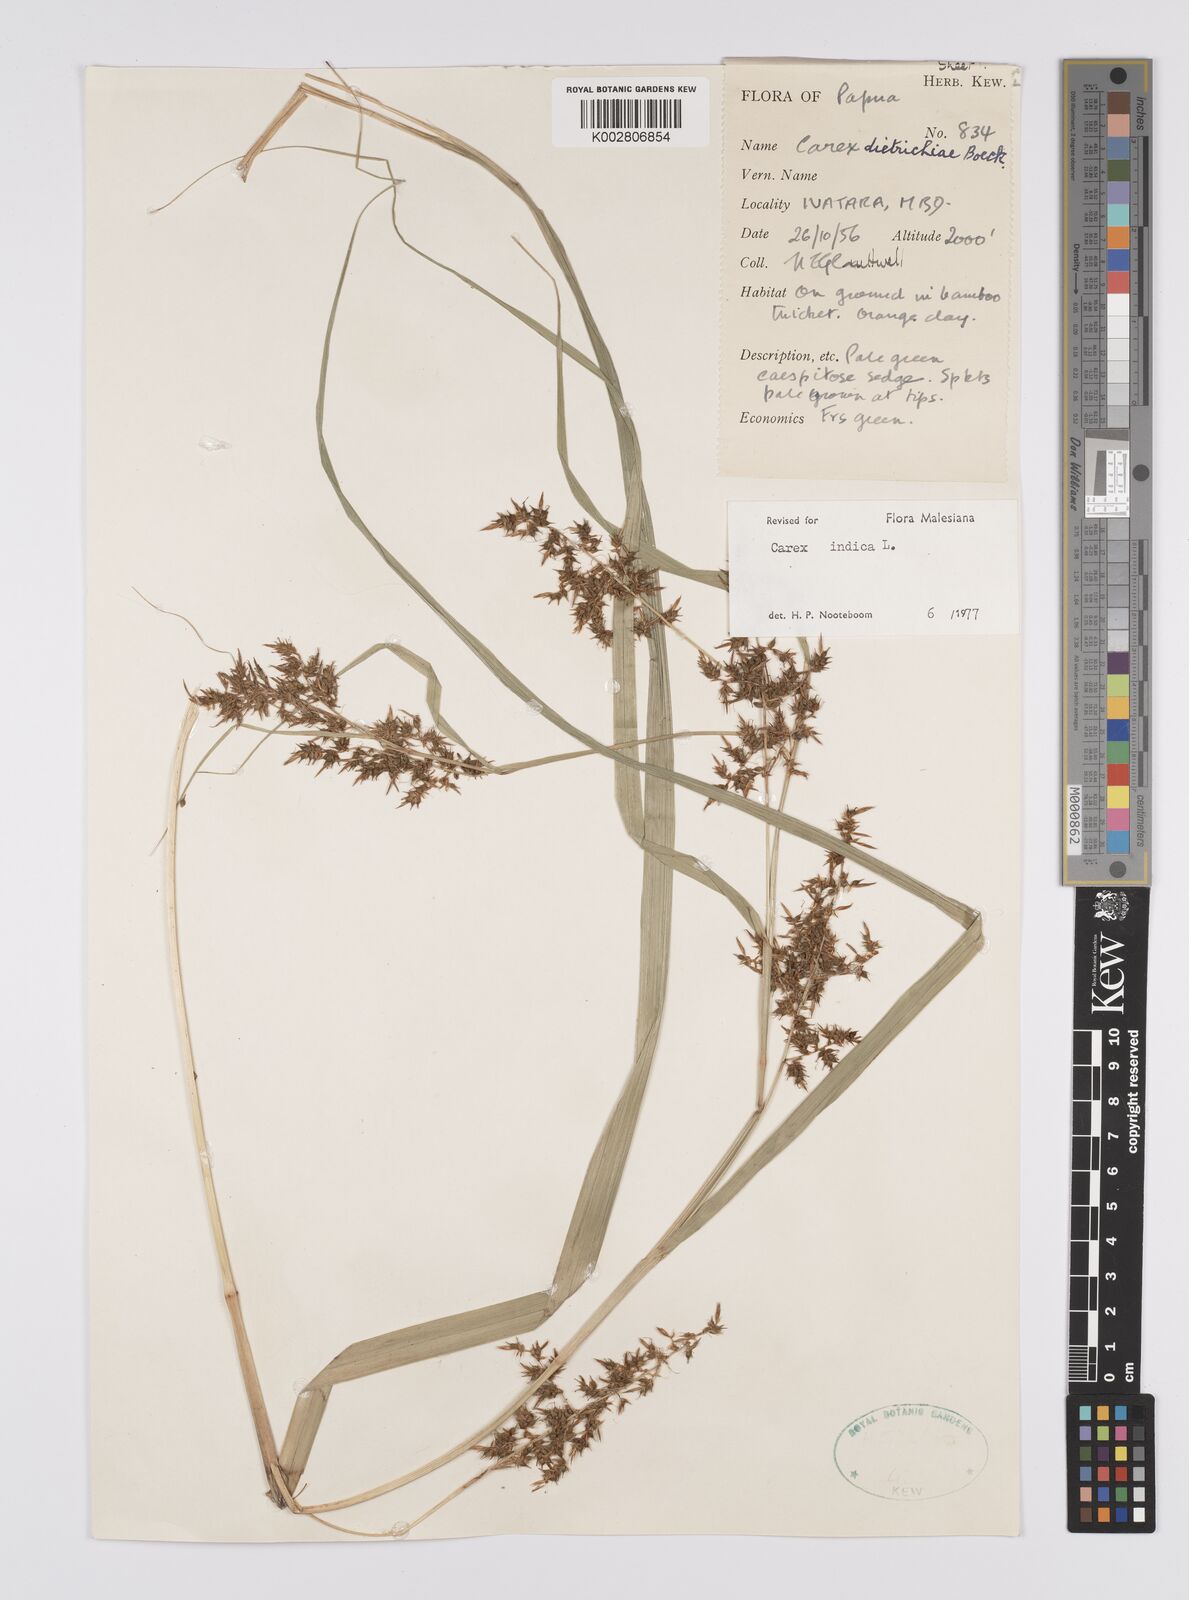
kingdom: Plantae
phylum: Tracheophyta
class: Liliopsida
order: Poales
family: Cyperaceae
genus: Carex
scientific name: Carex indica
